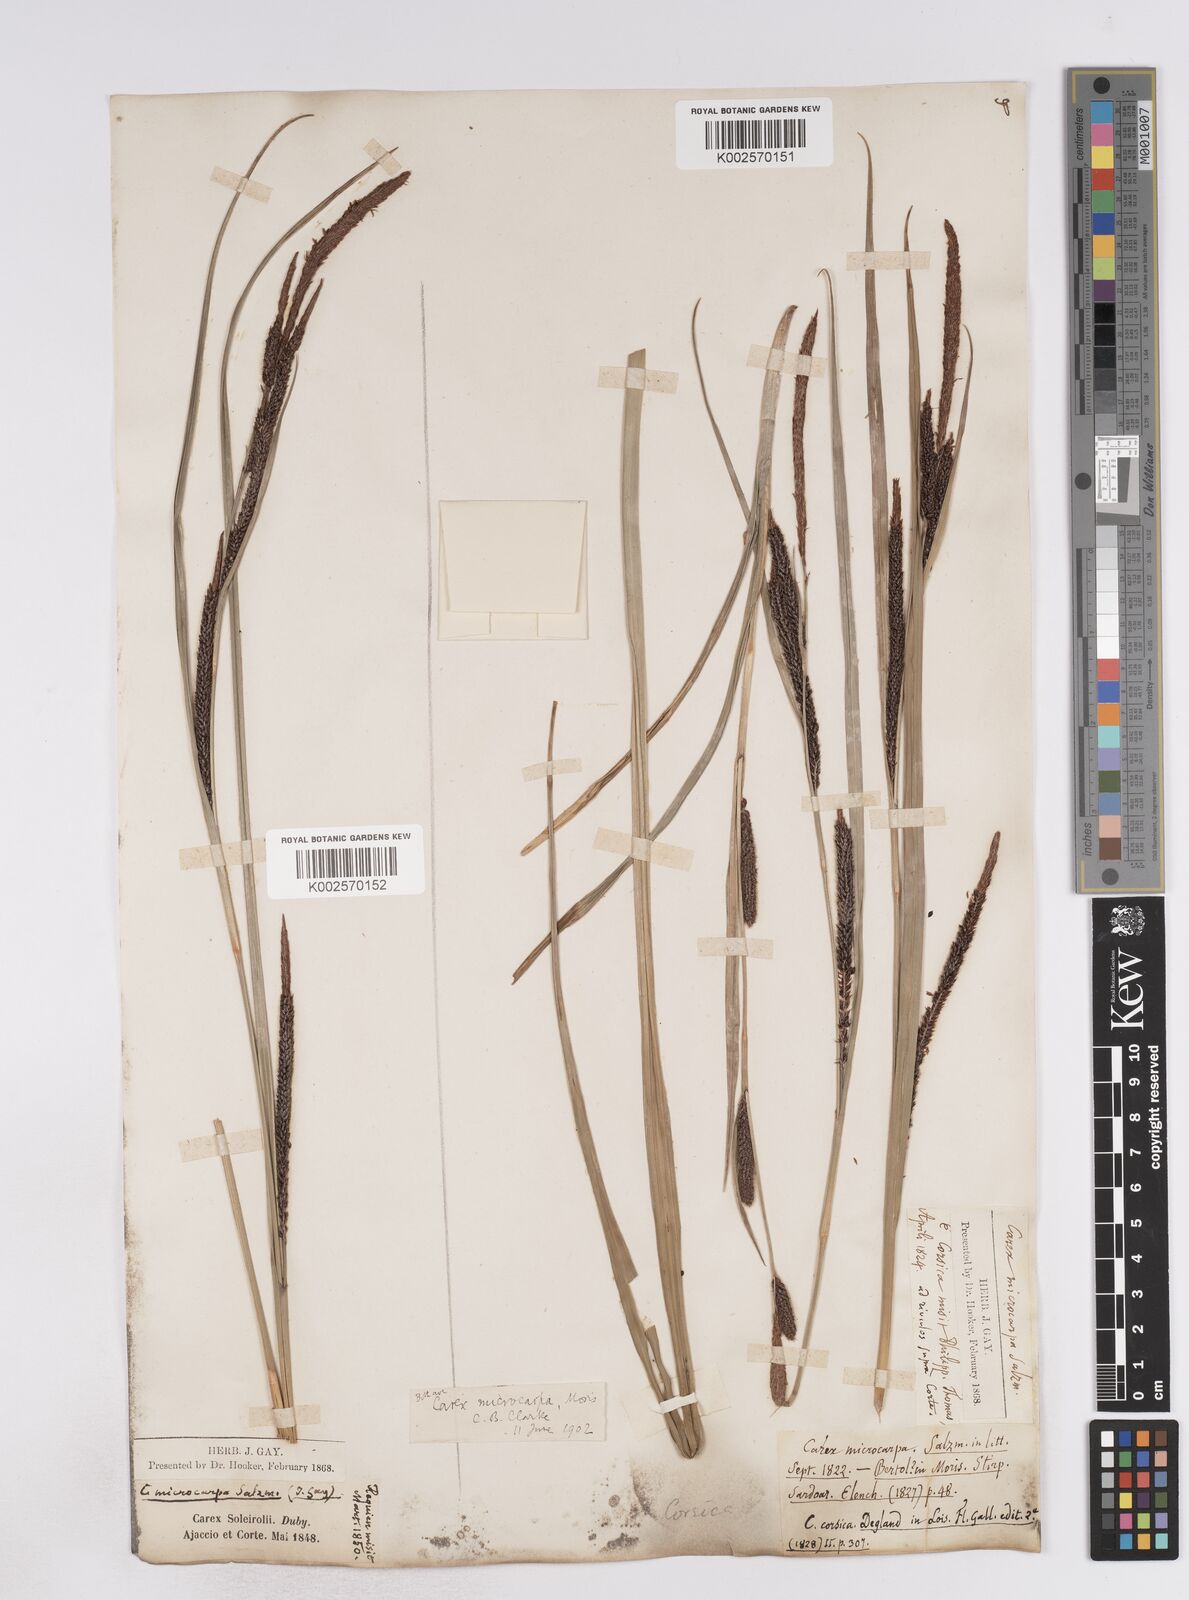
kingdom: Plantae
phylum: Tracheophyta
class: Liliopsida
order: Poales
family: Cyperaceae
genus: Carex
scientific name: Carex microcarpa
